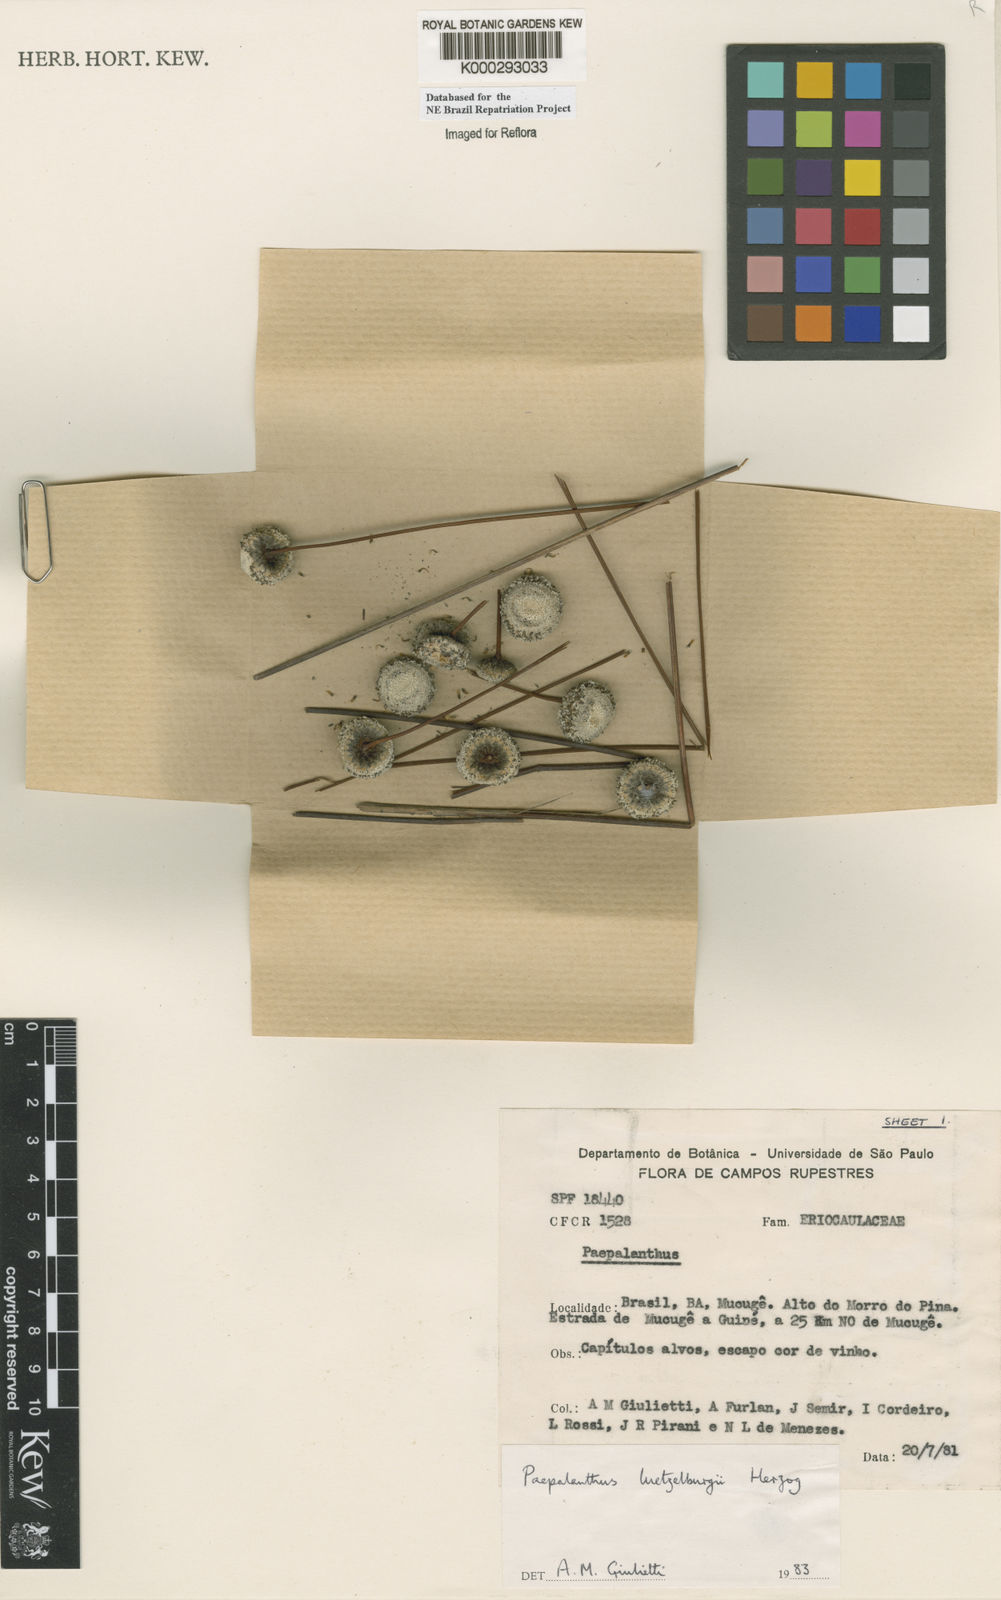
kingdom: Plantae
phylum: Tracheophyta
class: Liliopsida
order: Poales
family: Eriocaulaceae
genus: Paepalanthus
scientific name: Paepalanthus luetzelburgii
